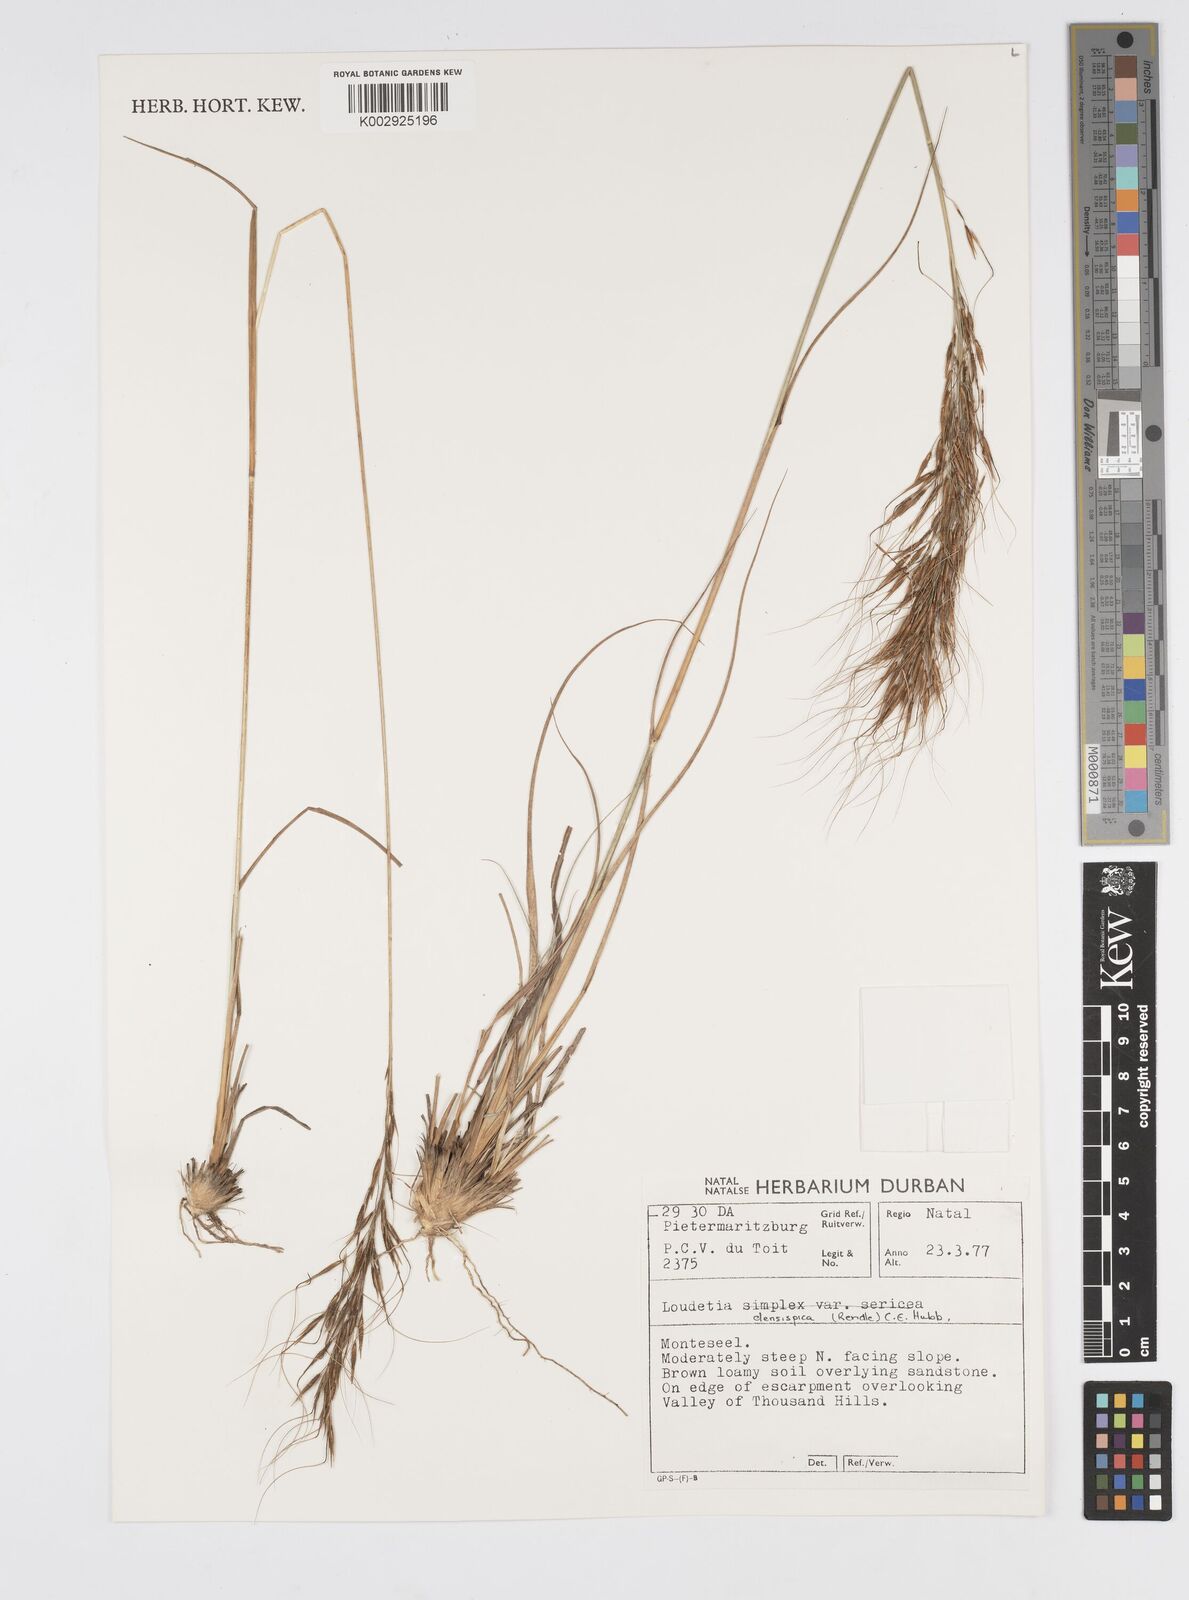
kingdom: Plantae
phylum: Tracheophyta
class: Liliopsida
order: Poales
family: Poaceae
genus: Loudetia
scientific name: Loudetia simplex
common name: Common russet grass
